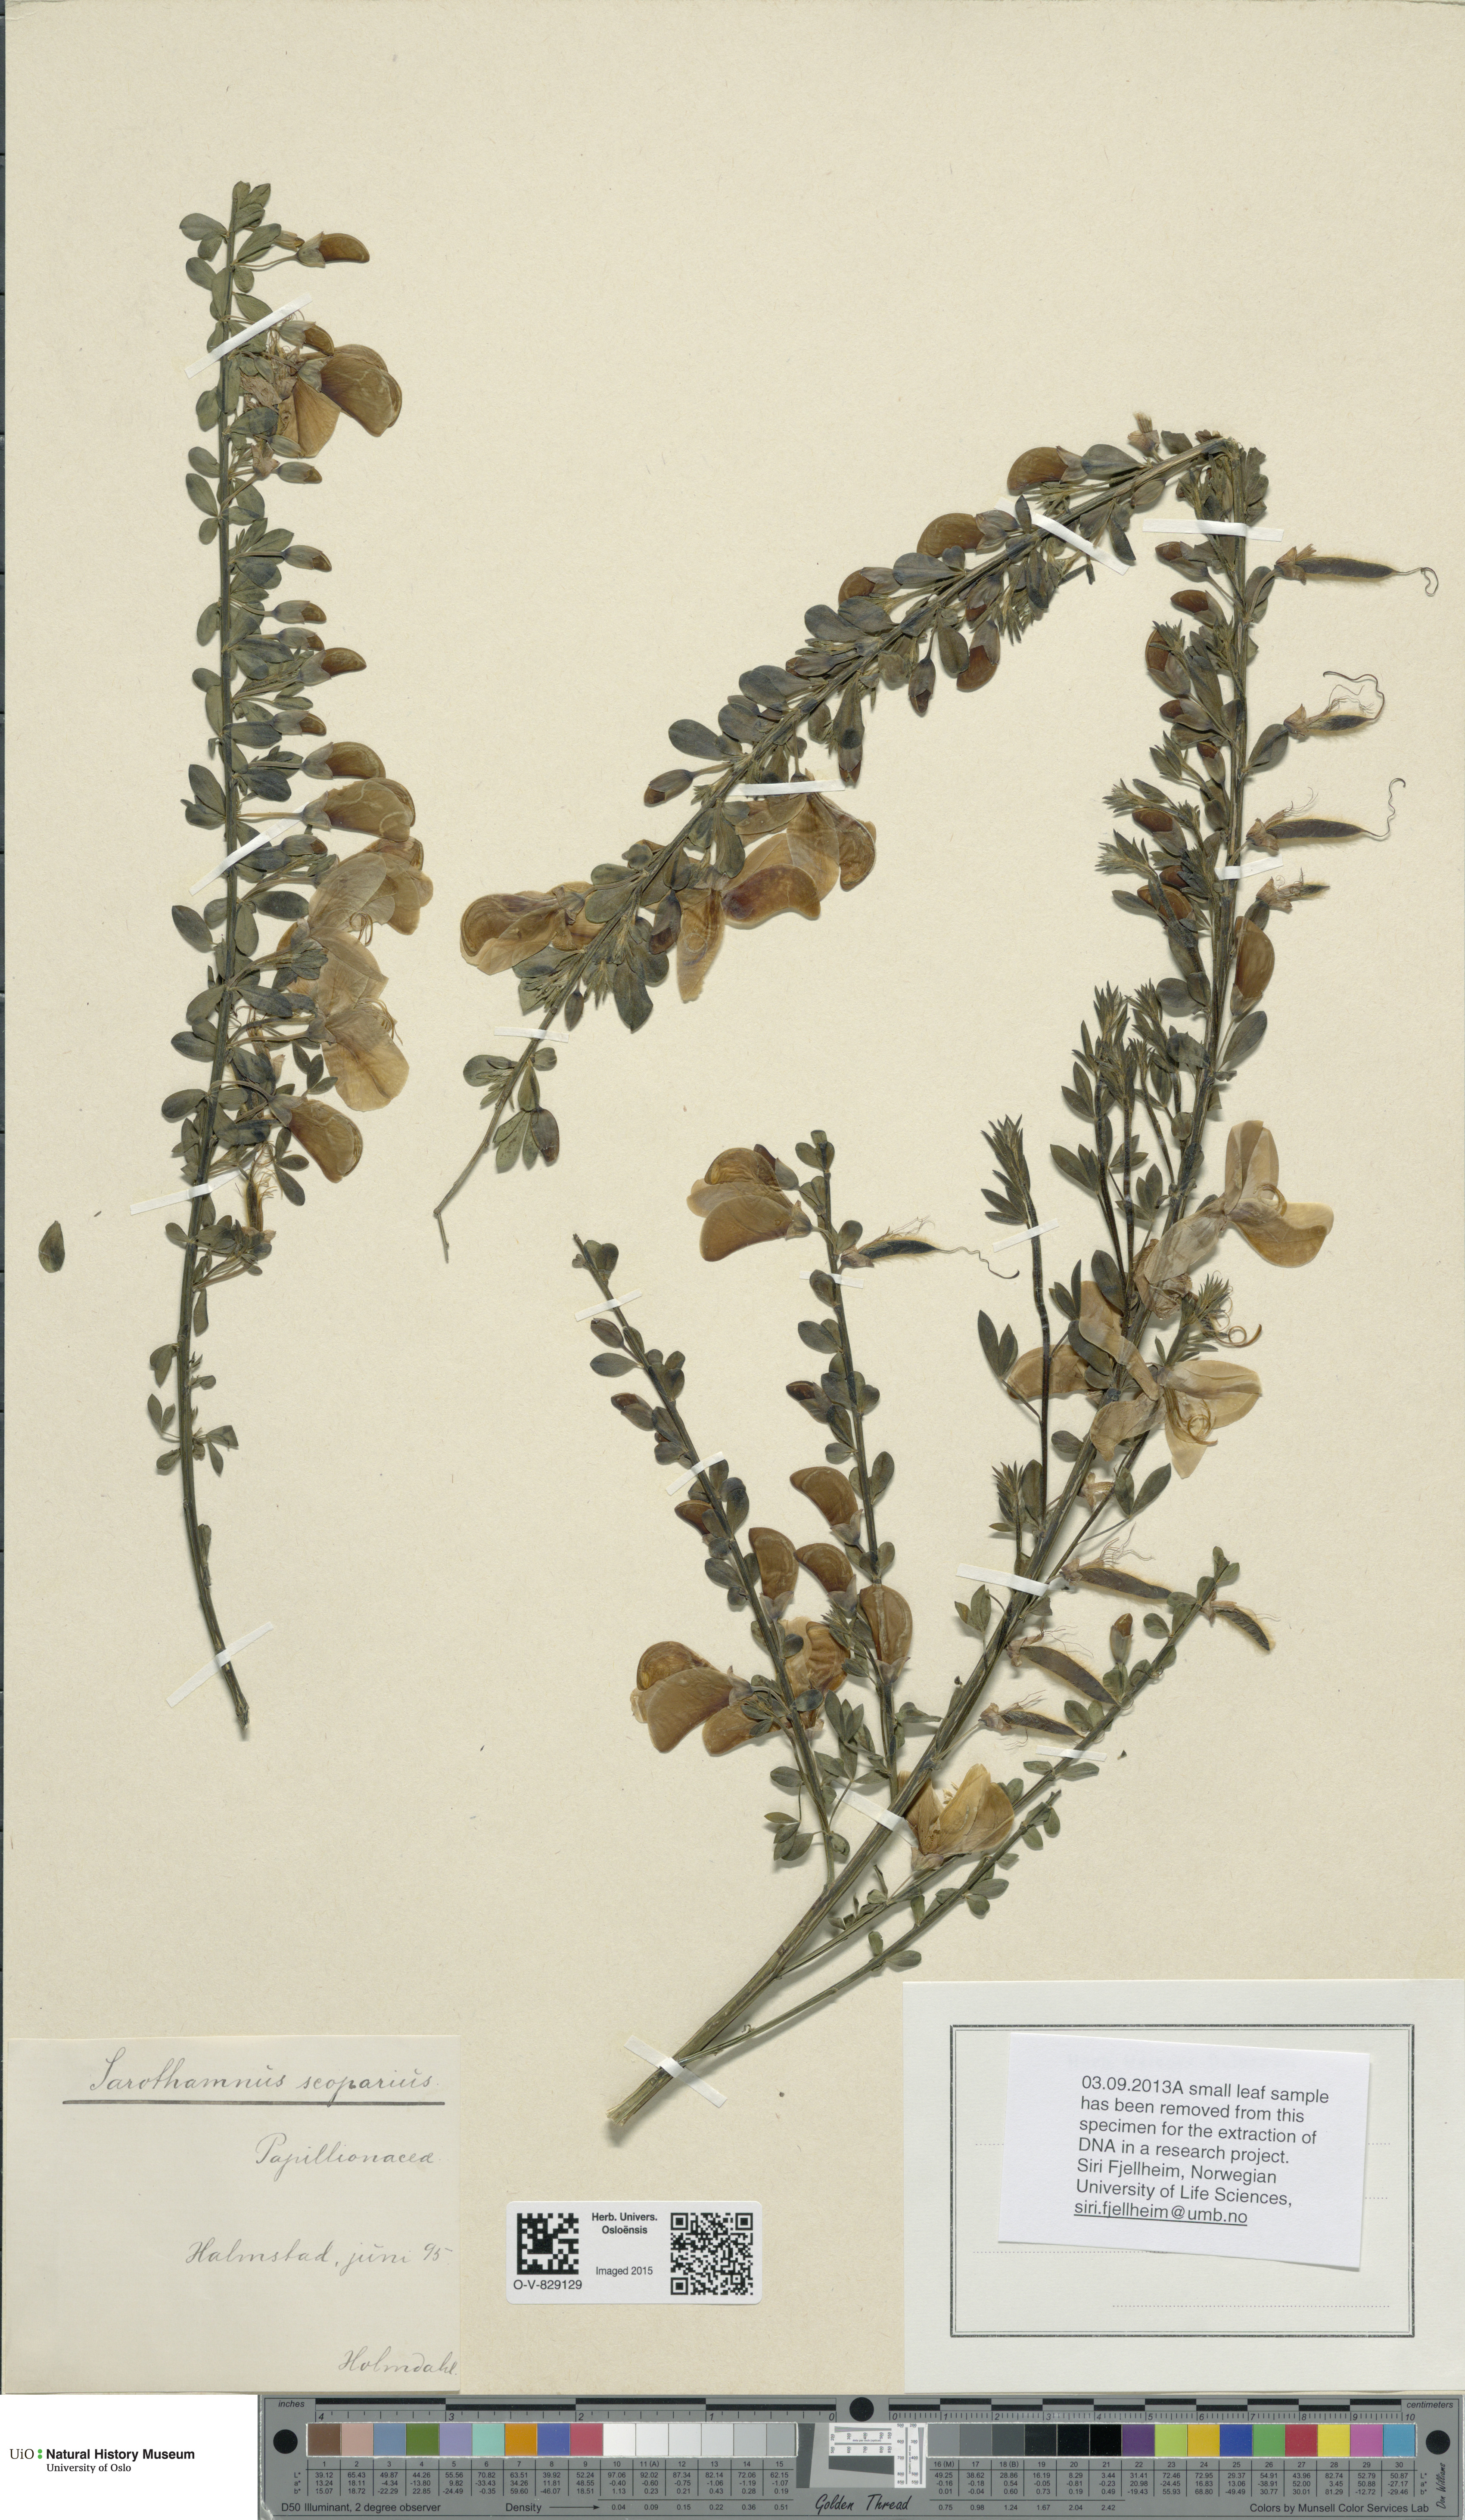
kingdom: Plantae
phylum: Tracheophyta
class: Magnoliopsida
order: Fabales
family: Fabaceae
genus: Cytisus
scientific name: Cytisus scoparius
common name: Scotch broom
